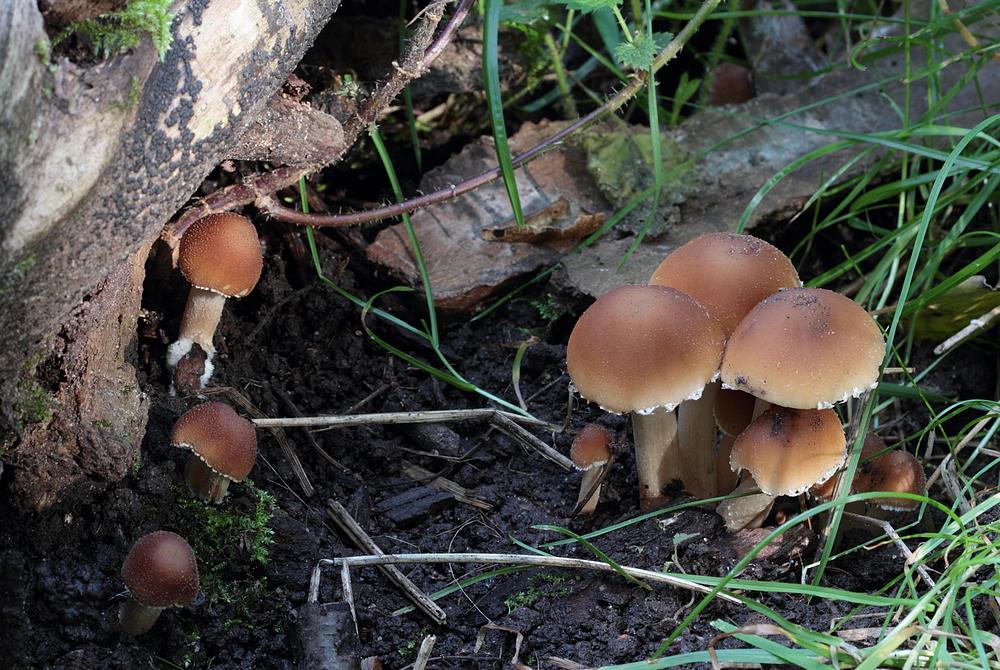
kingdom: Fungi
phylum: Basidiomycota
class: Agaricomycetes
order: Agaricales
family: Psathyrellaceae
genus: Candolleomyces
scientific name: Candolleomyces candolleanus
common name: Candolles mørkhat
